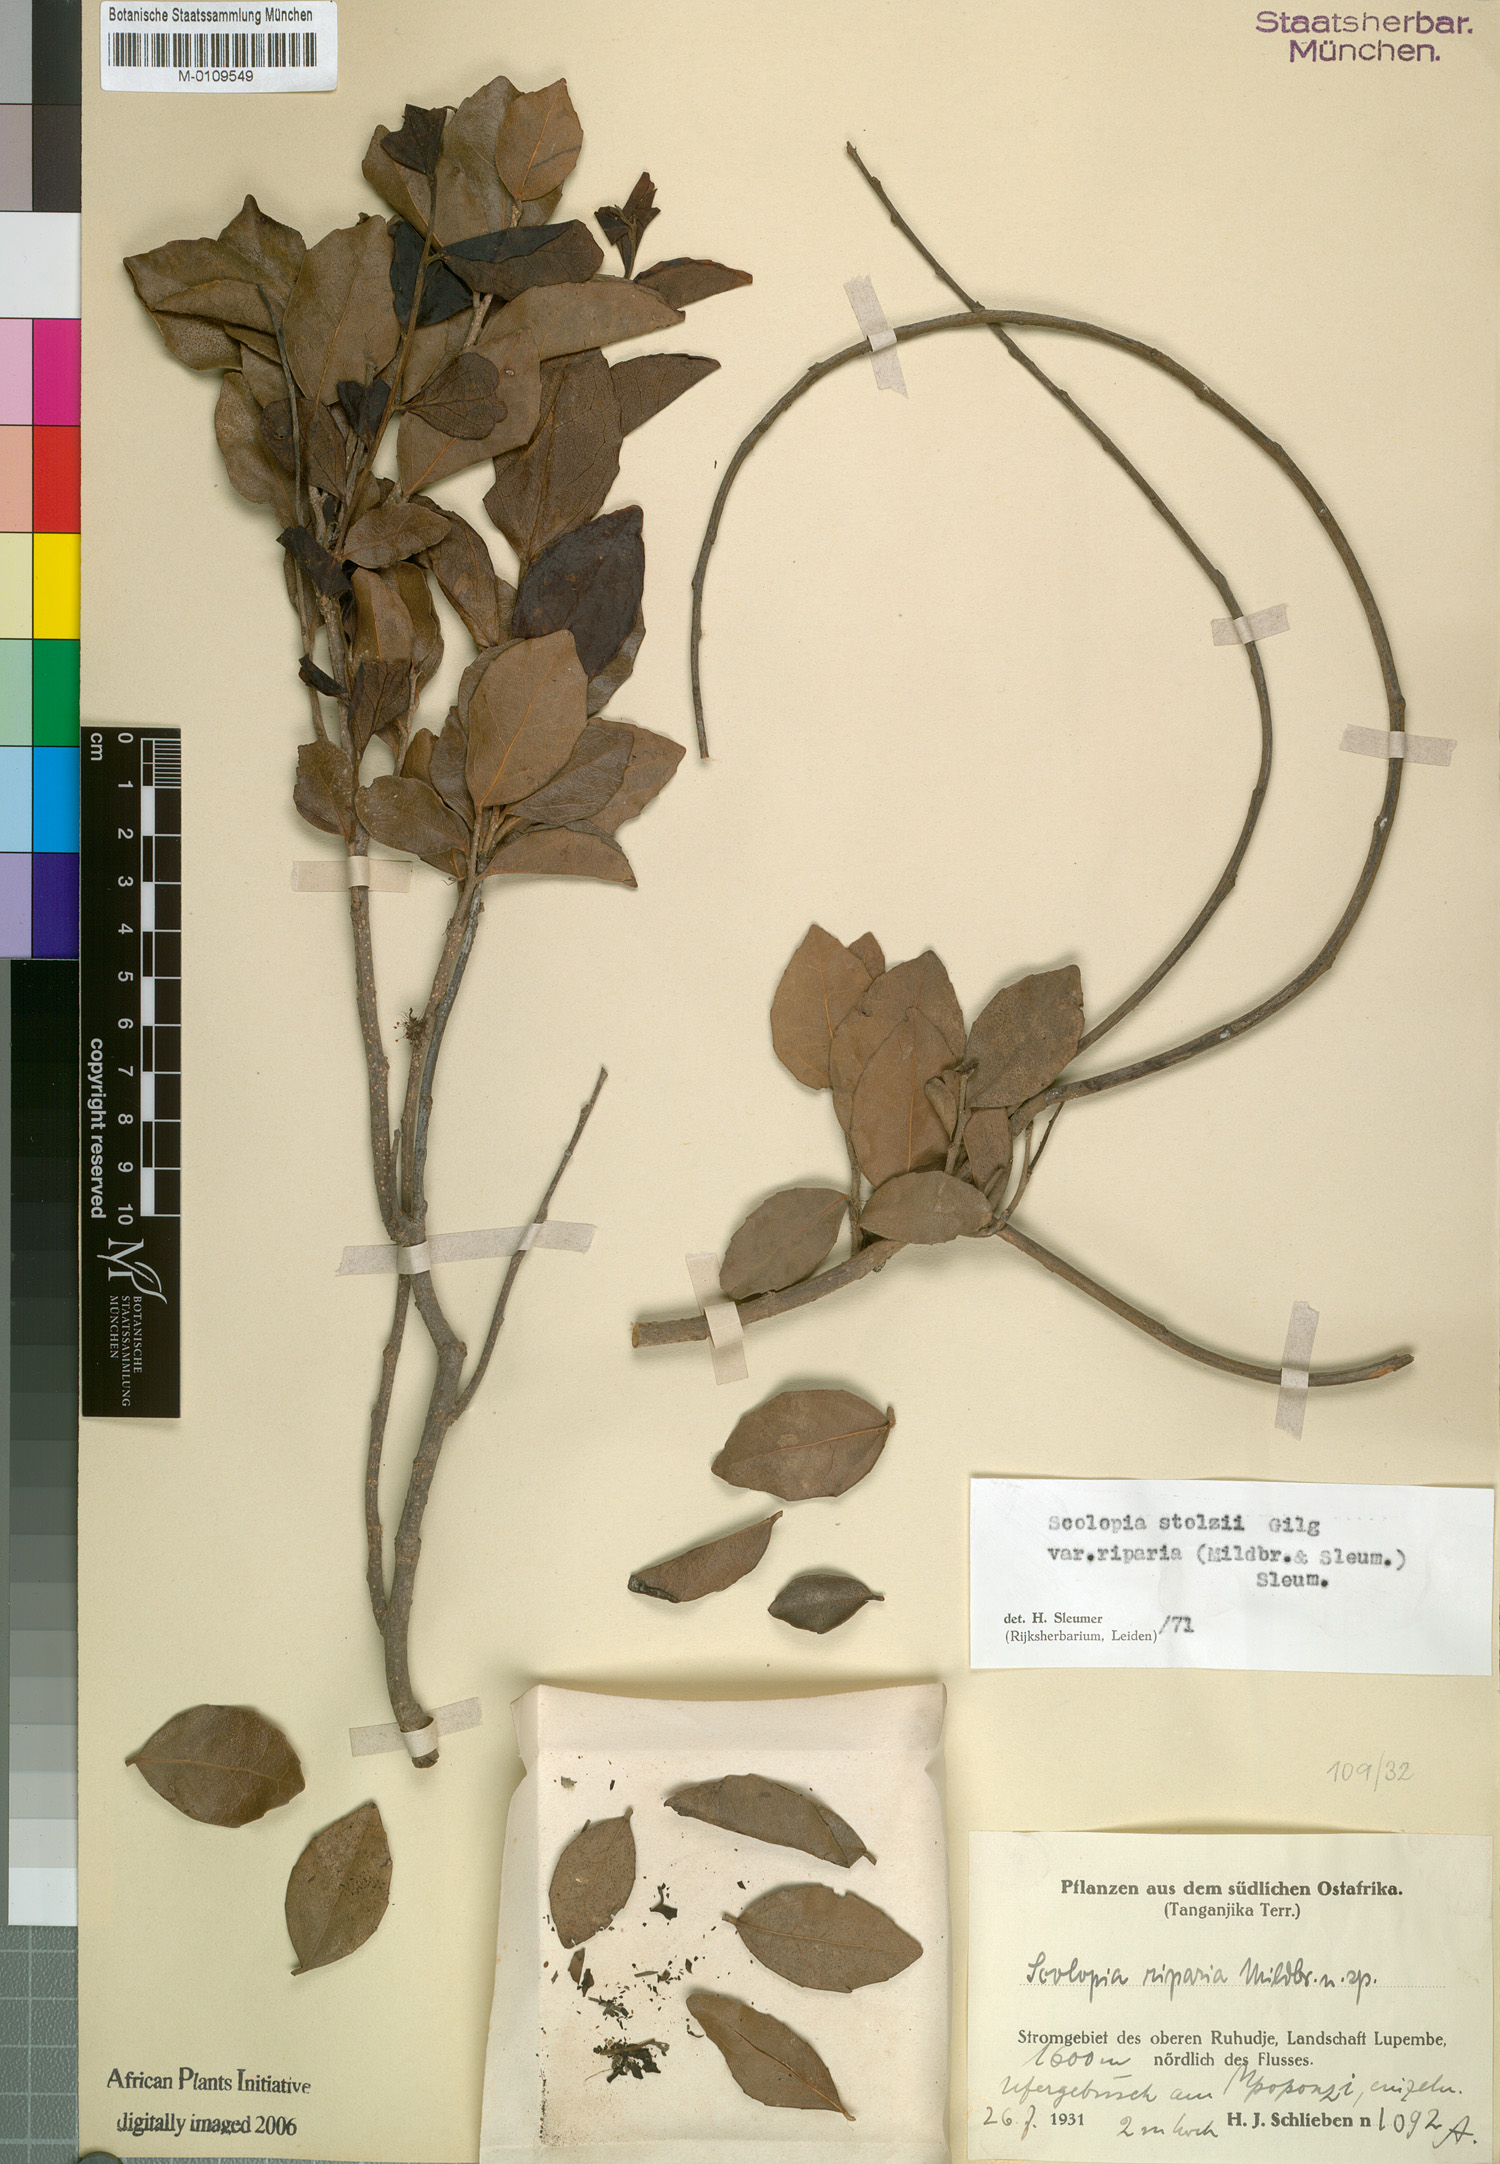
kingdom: Plantae
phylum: Tracheophyta
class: Magnoliopsida
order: Malpighiales
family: Salicaceae
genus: Scolopia
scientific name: Scolopia stolzii
